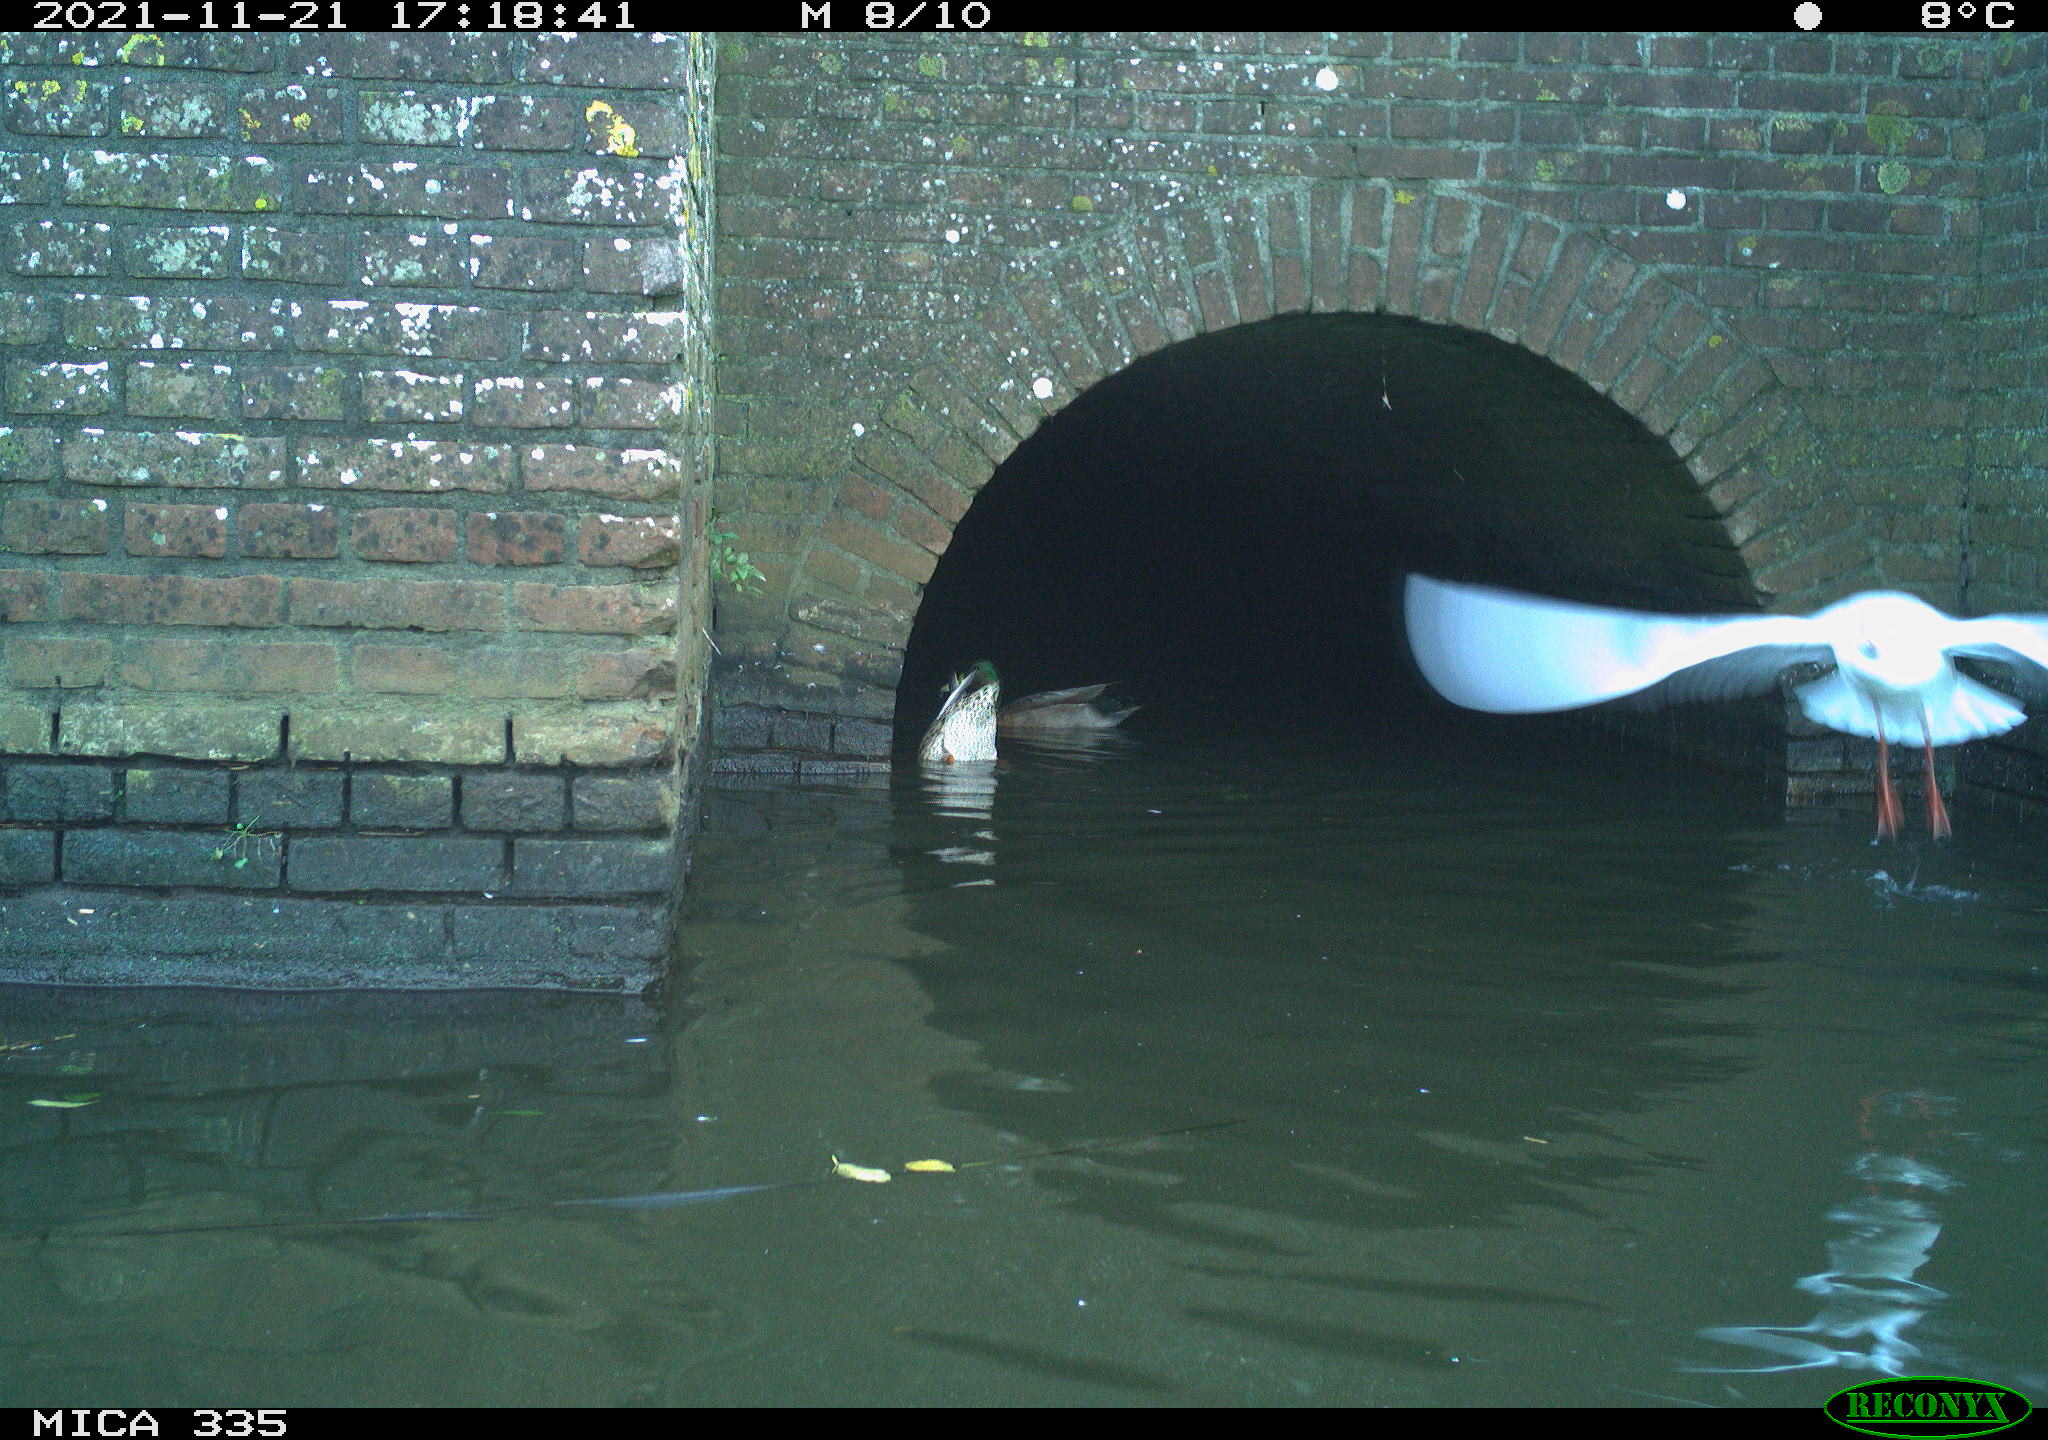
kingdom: Animalia
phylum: Chordata
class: Aves
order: Anseriformes
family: Anatidae
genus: Anas
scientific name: Anas platyrhynchos
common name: Mallard
